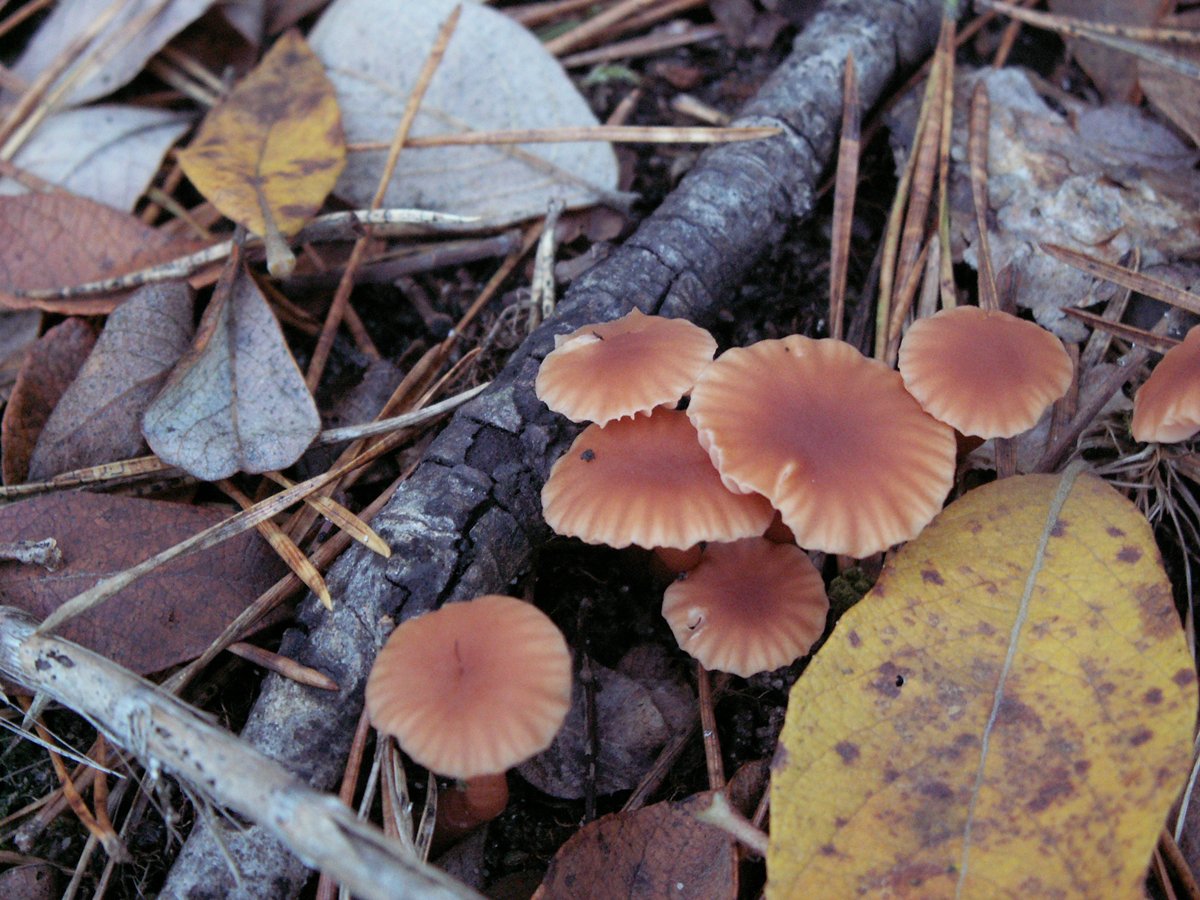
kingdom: Fungi
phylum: Basidiomycota
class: Agaricomycetes
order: Agaricales
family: Hydnangiaceae
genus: Laccaria
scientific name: Laccaria laccata
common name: rød ametysthat
